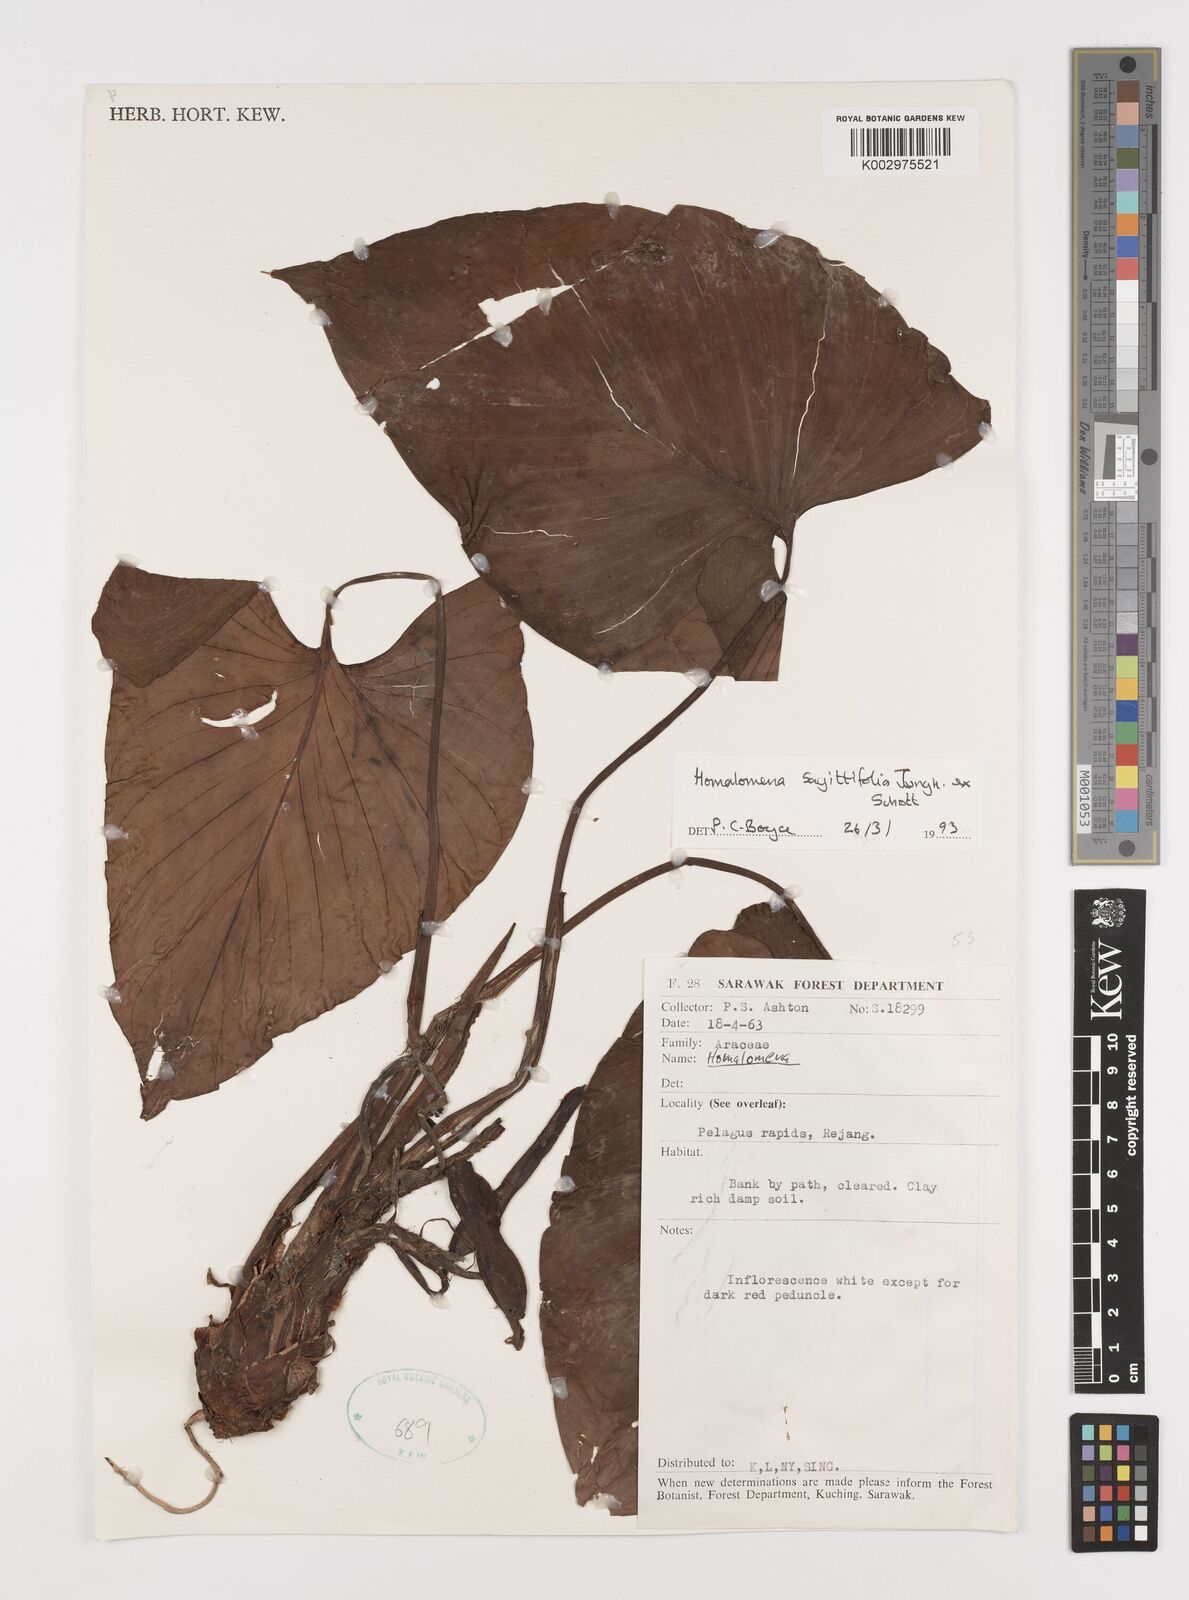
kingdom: Plantae
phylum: Tracheophyta
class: Liliopsida
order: Alismatales
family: Araceae
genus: Homalomena
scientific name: Homalomena rostrata
